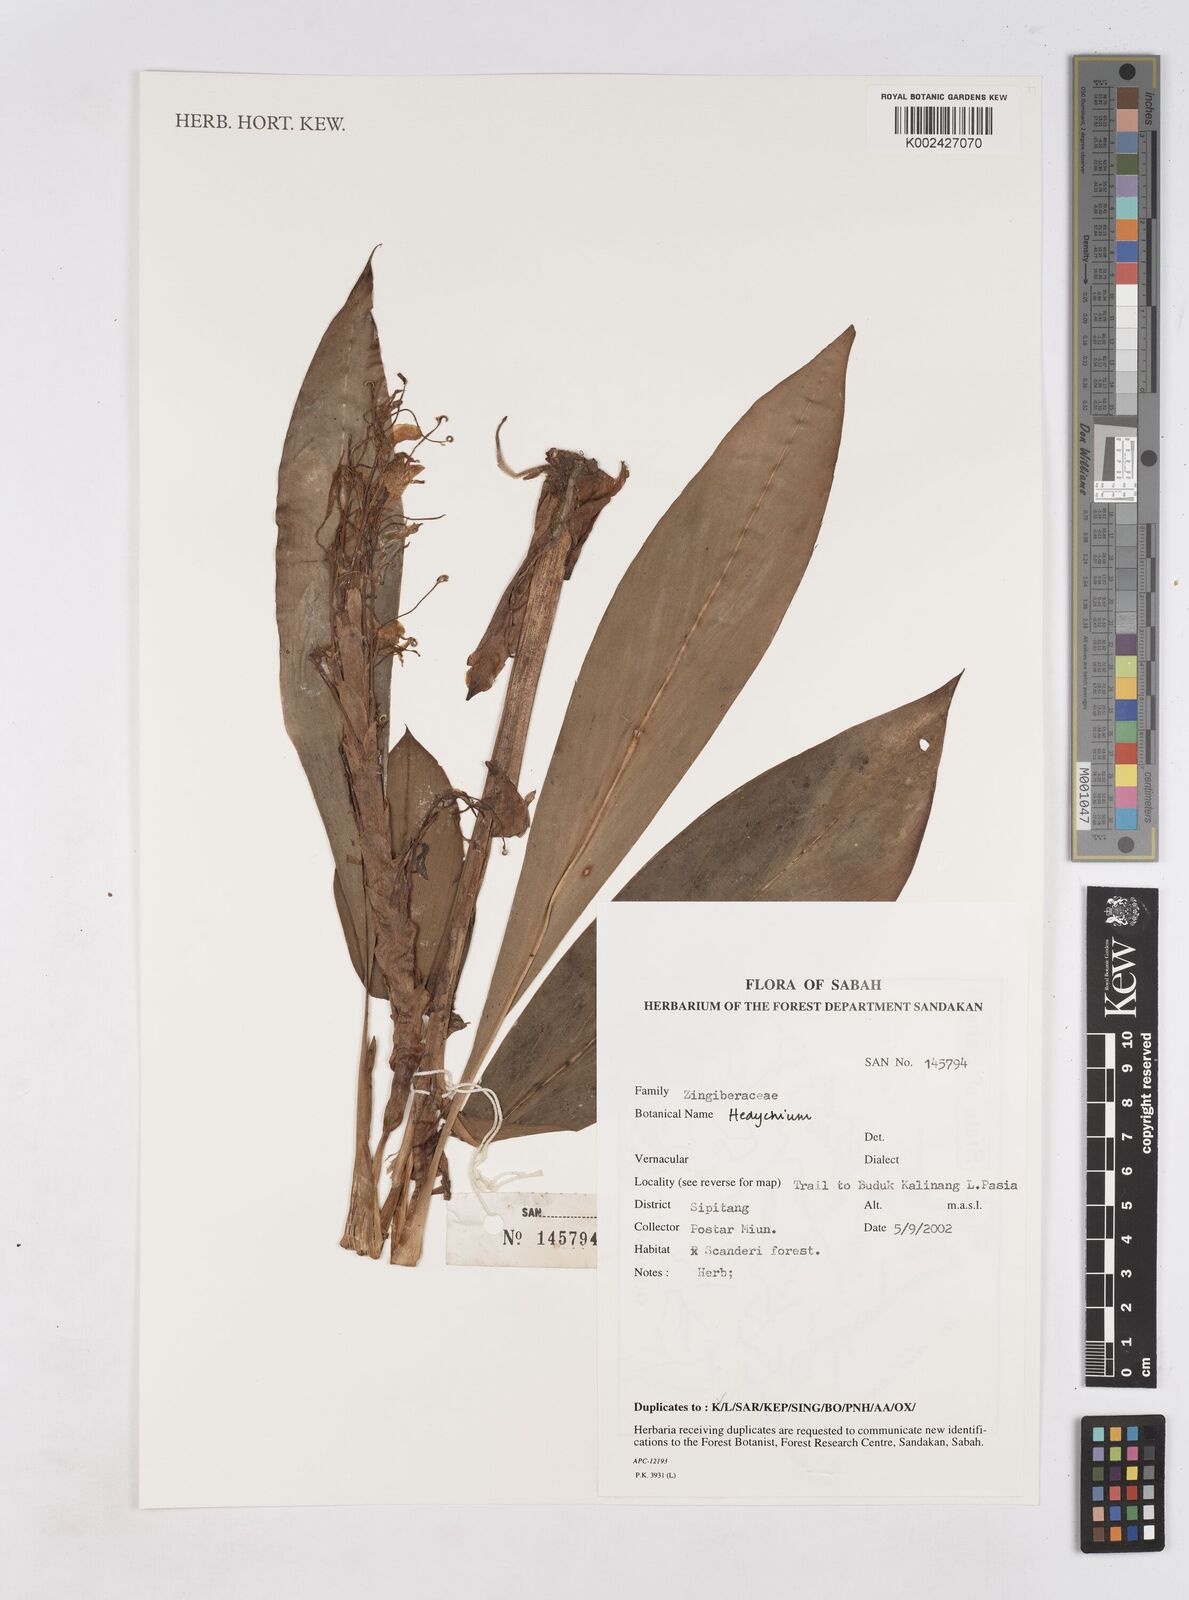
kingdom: Plantae
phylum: Tracheophyta
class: Liliopsida
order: Zingiberales
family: Zingiberaceae
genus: Hedychium
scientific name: Hedychium
